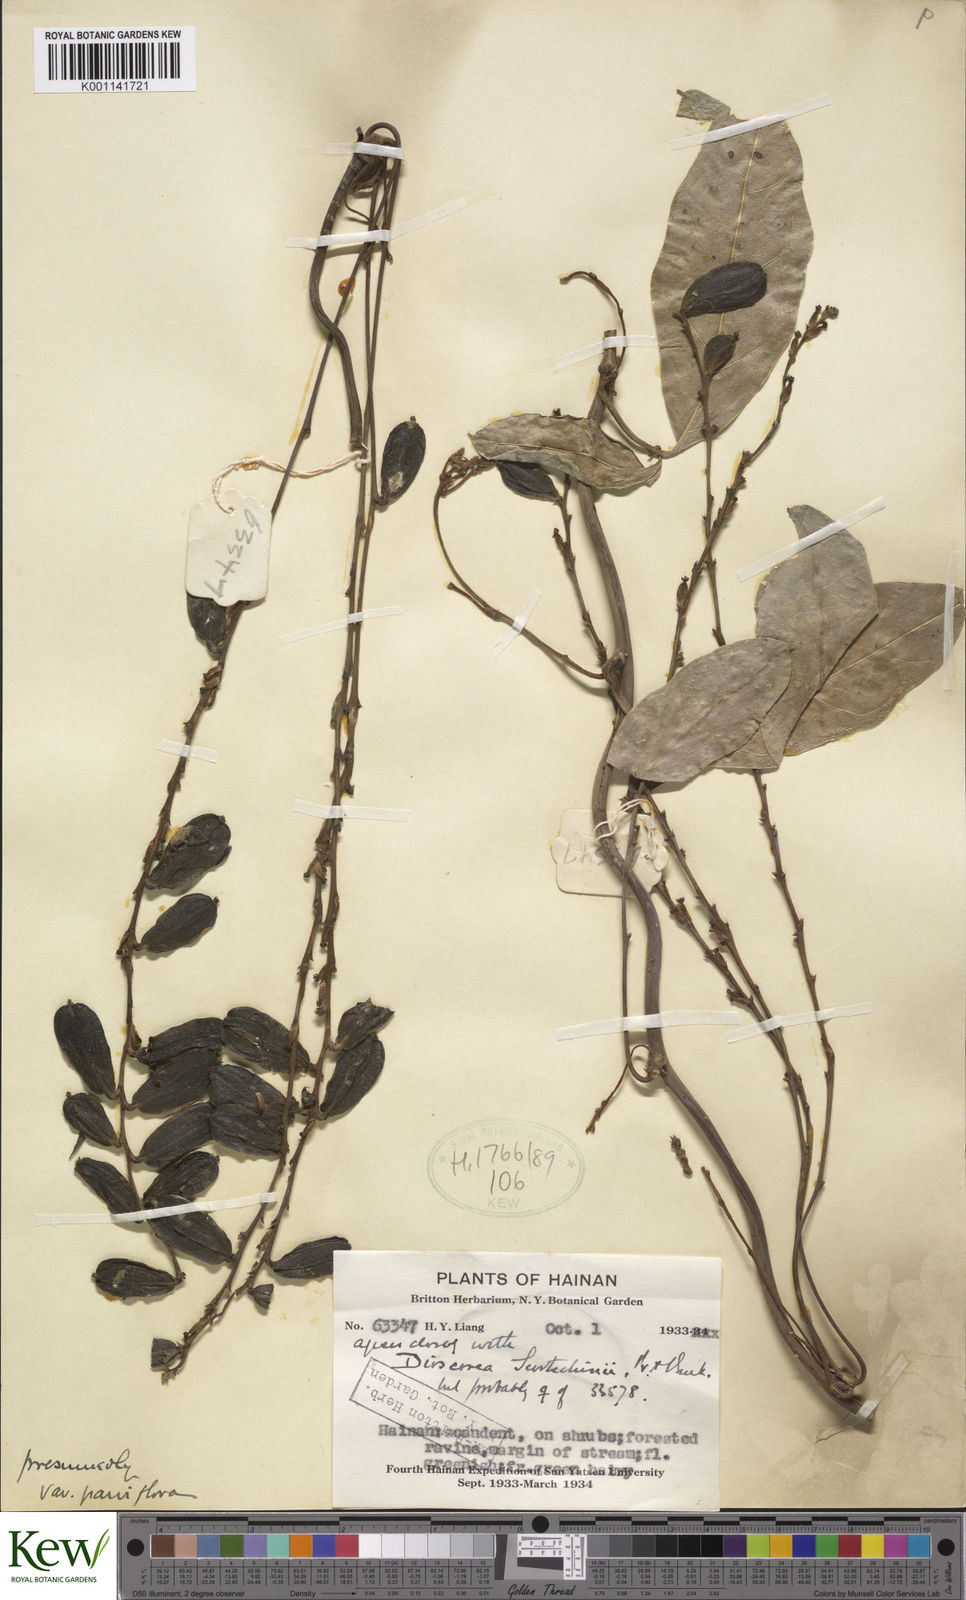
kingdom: Plantae
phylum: Tracheophyta
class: Liliopsida
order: Dioscoreales
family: Dioscoreaceae
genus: Dioscorea
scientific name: Dioscorea scortechinii
